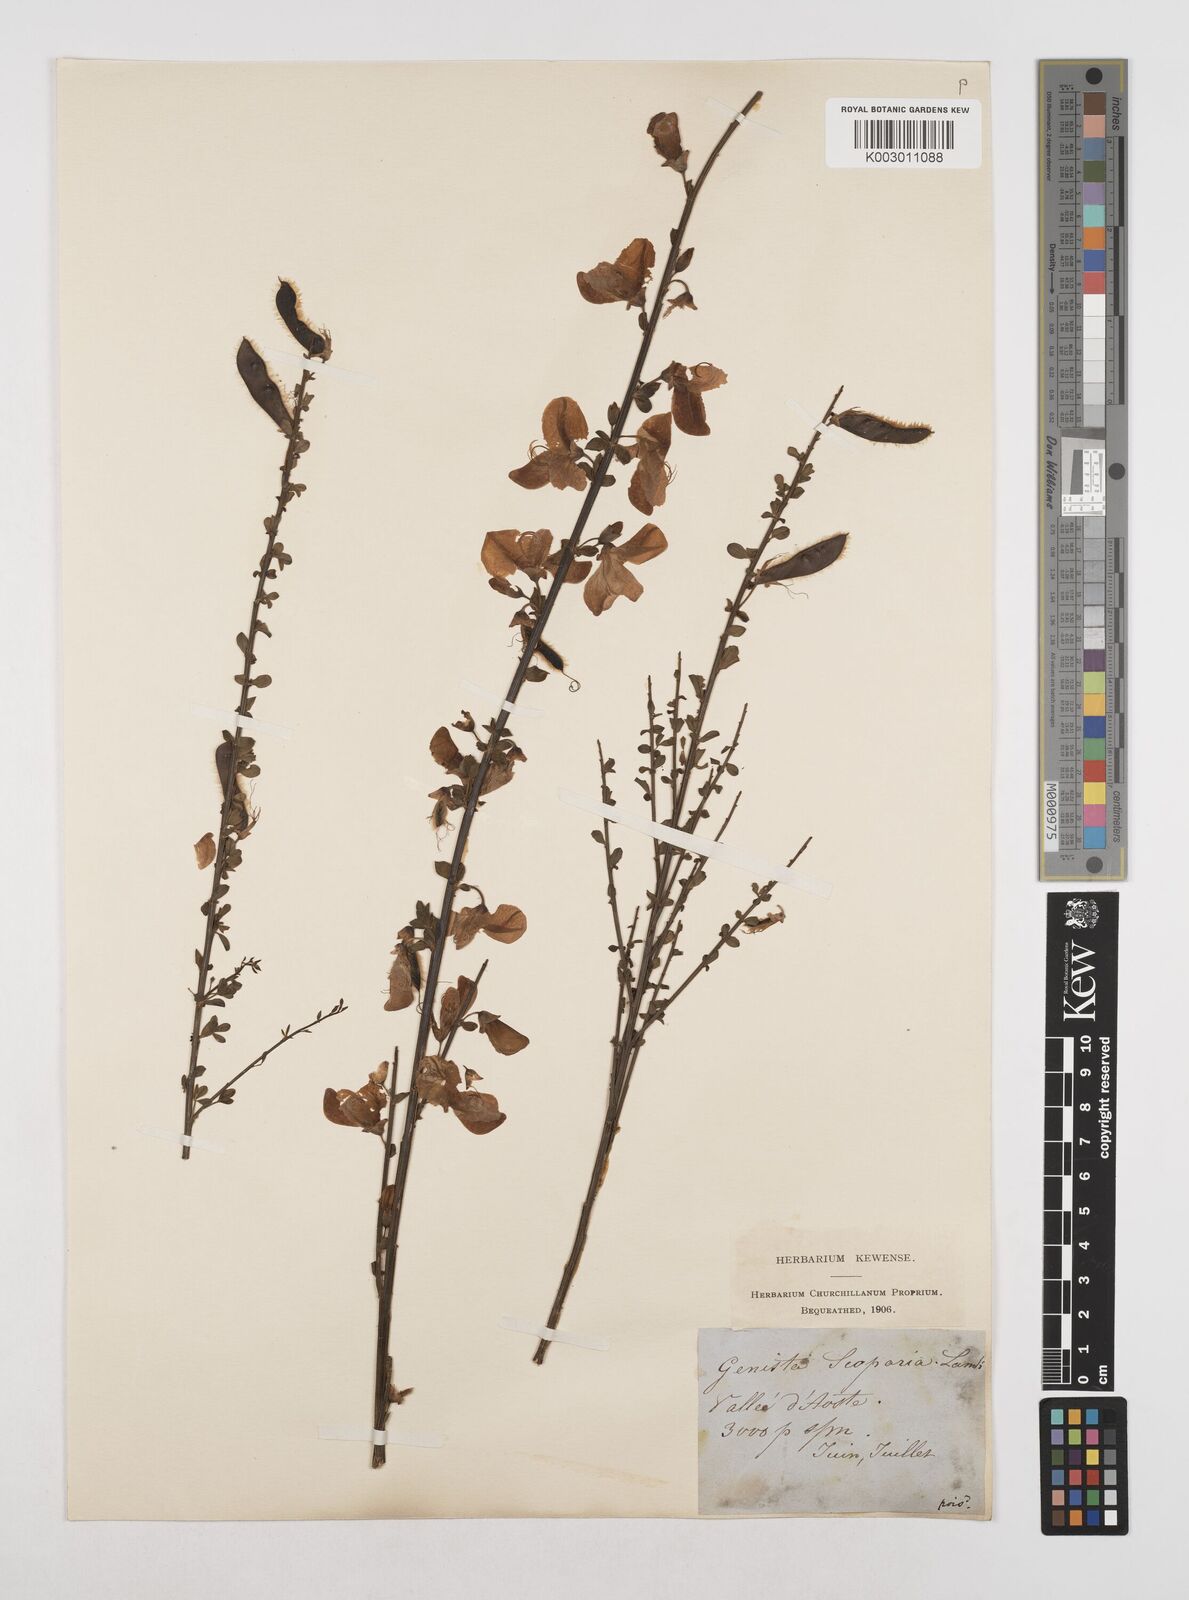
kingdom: Plantae
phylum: Tracheophyta
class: Magnoliopsida
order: Fabales
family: Fabaceae
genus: Cytisus
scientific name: Cytisus scoparius
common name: Scotch broom
